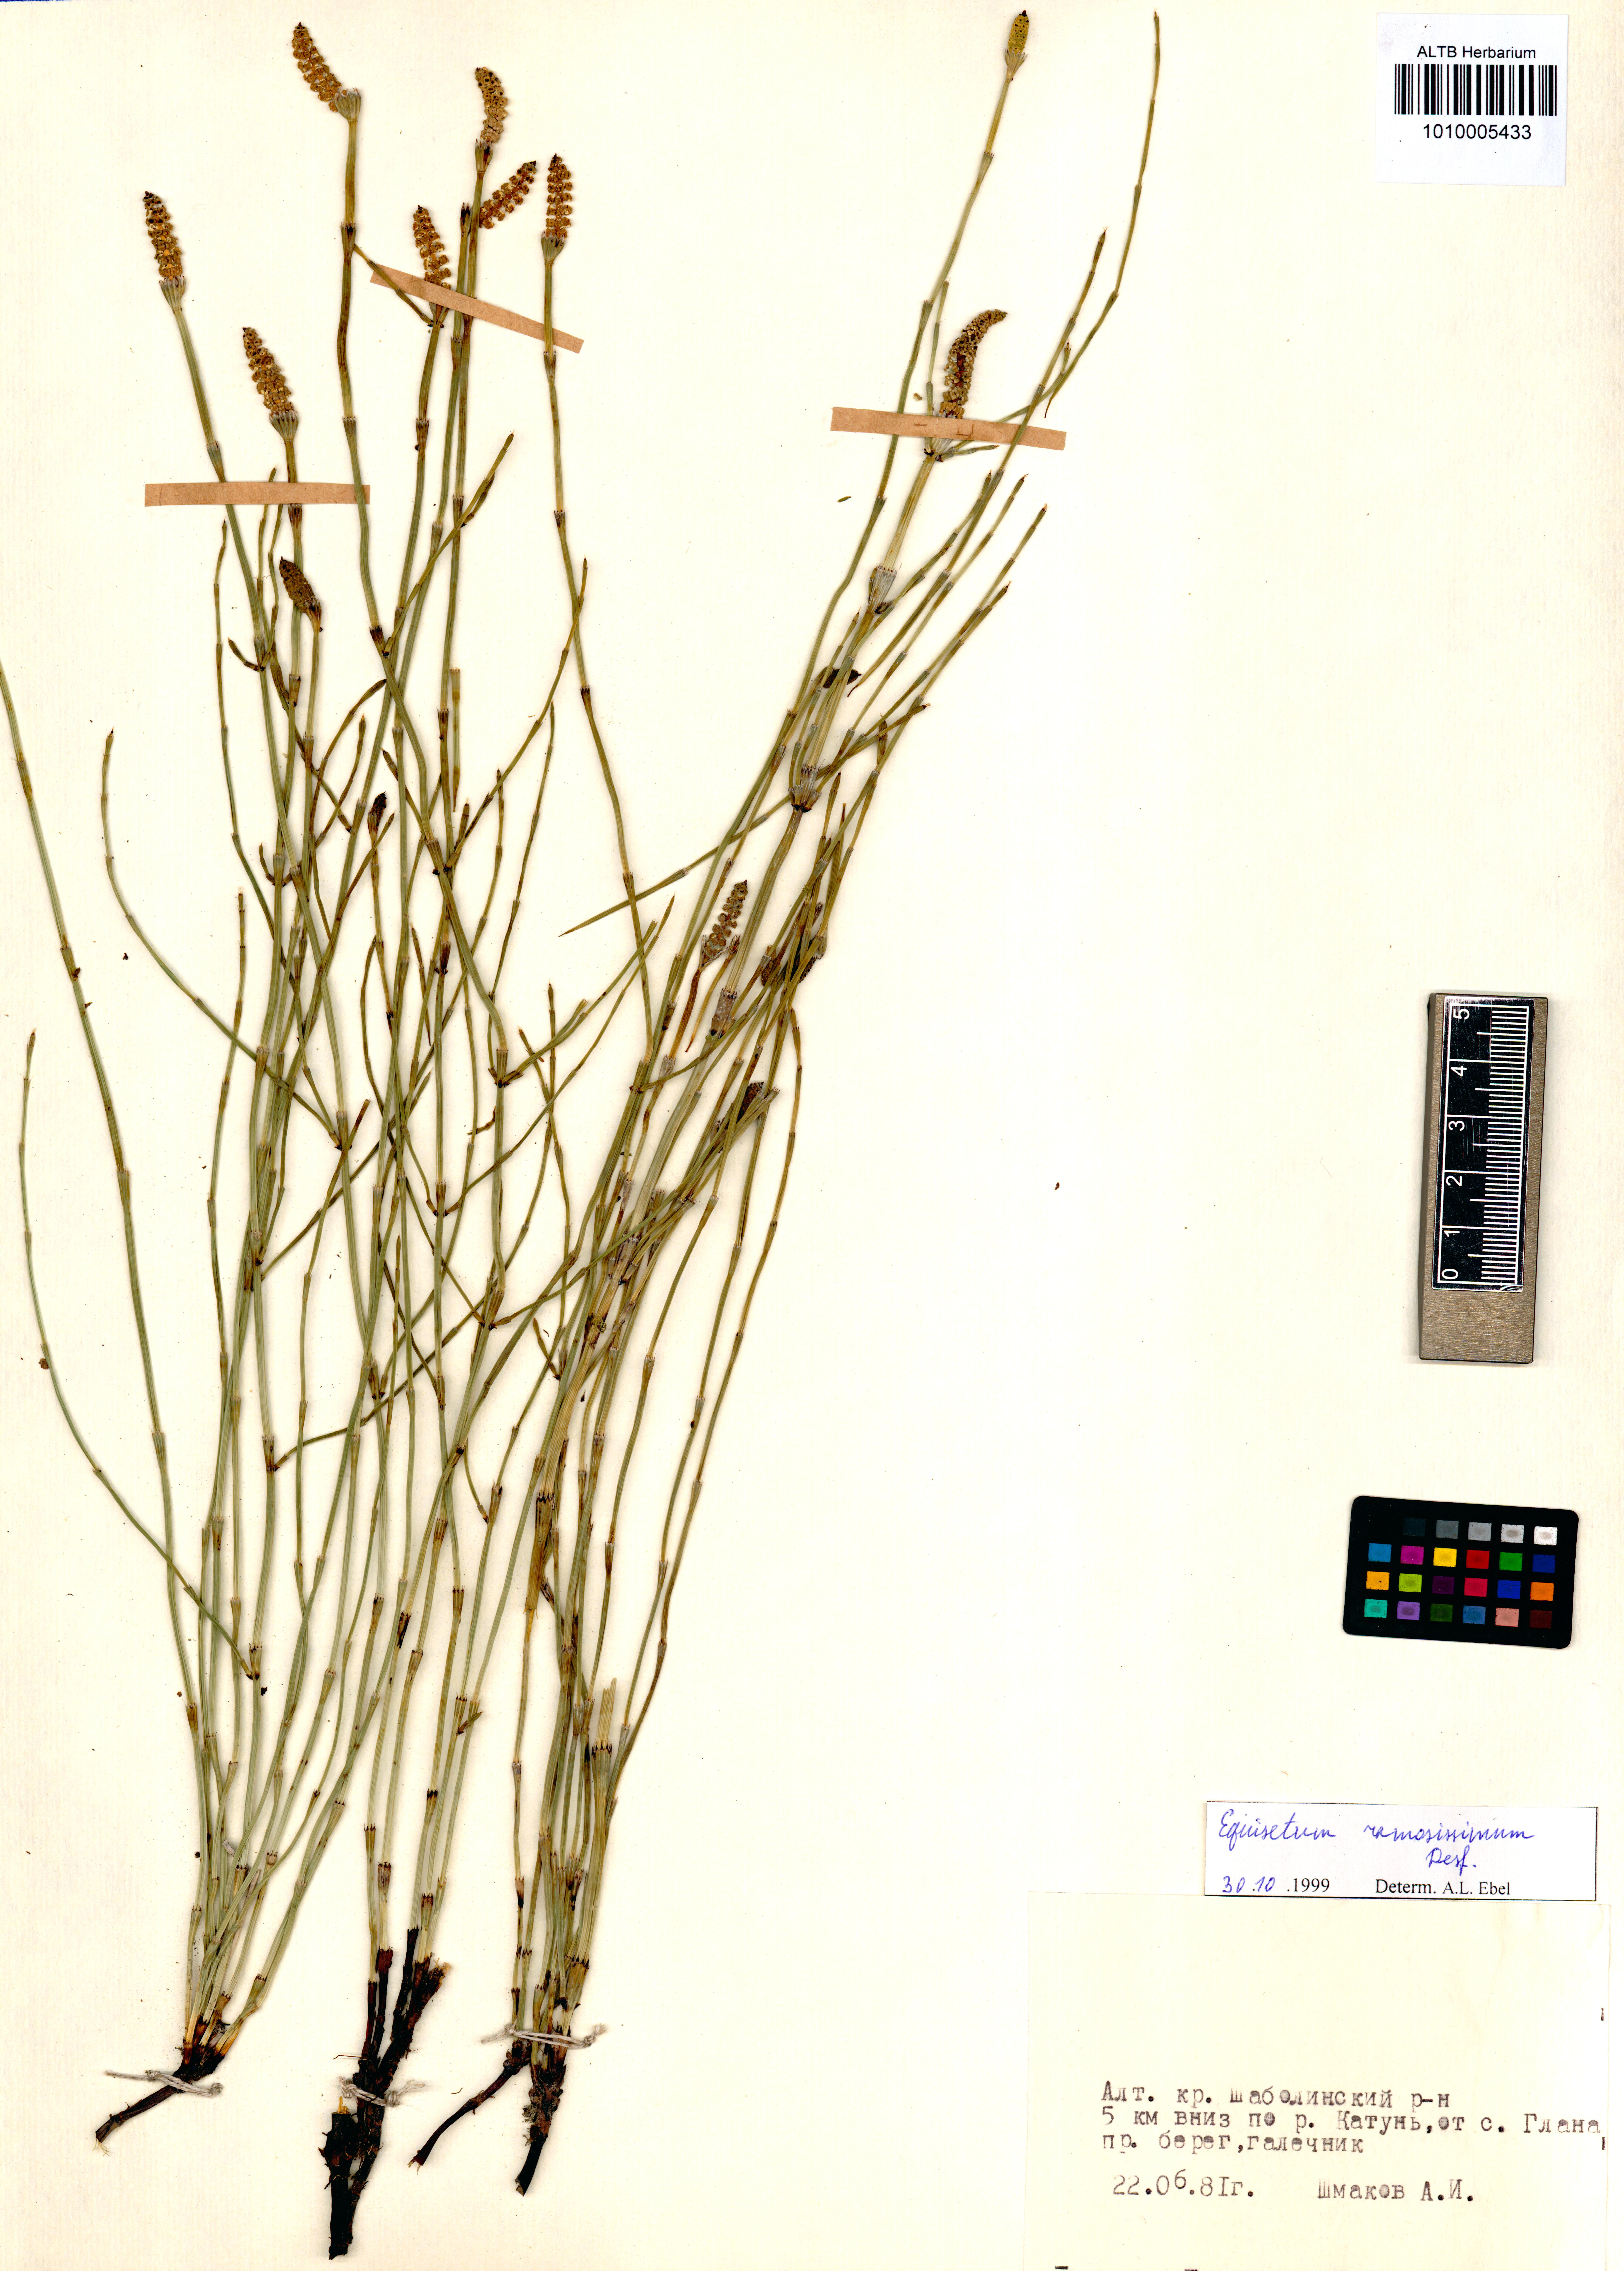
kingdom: Plantae
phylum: Tracheophyta
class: Polypodiopsida
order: Equisetales
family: Equisetaceae
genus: Equisetum
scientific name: Equisetum ramosissimum
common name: Branched horsetail
